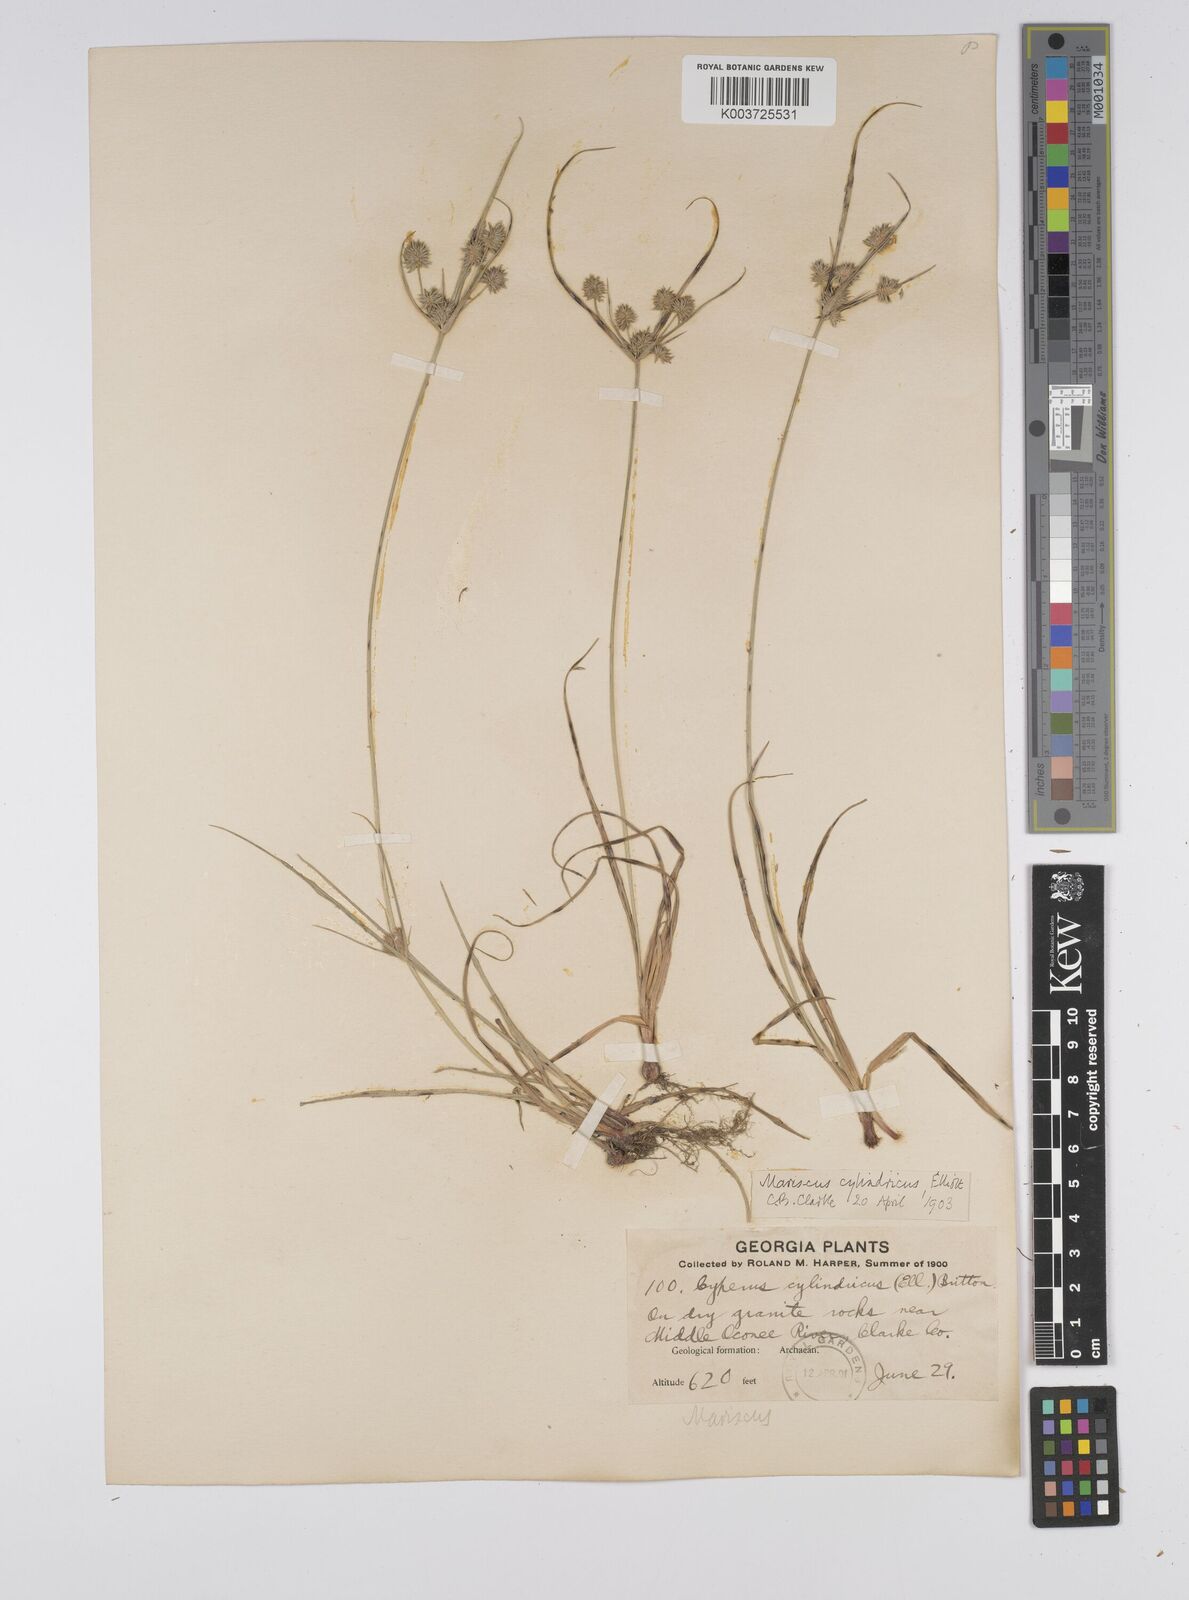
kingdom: Plantae
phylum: Tracheophyta
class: Liliopsida
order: Poales
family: Cyperaceae
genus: Cyperus
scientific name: Cyperus retrorsus
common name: Pinebarren flat sedge
